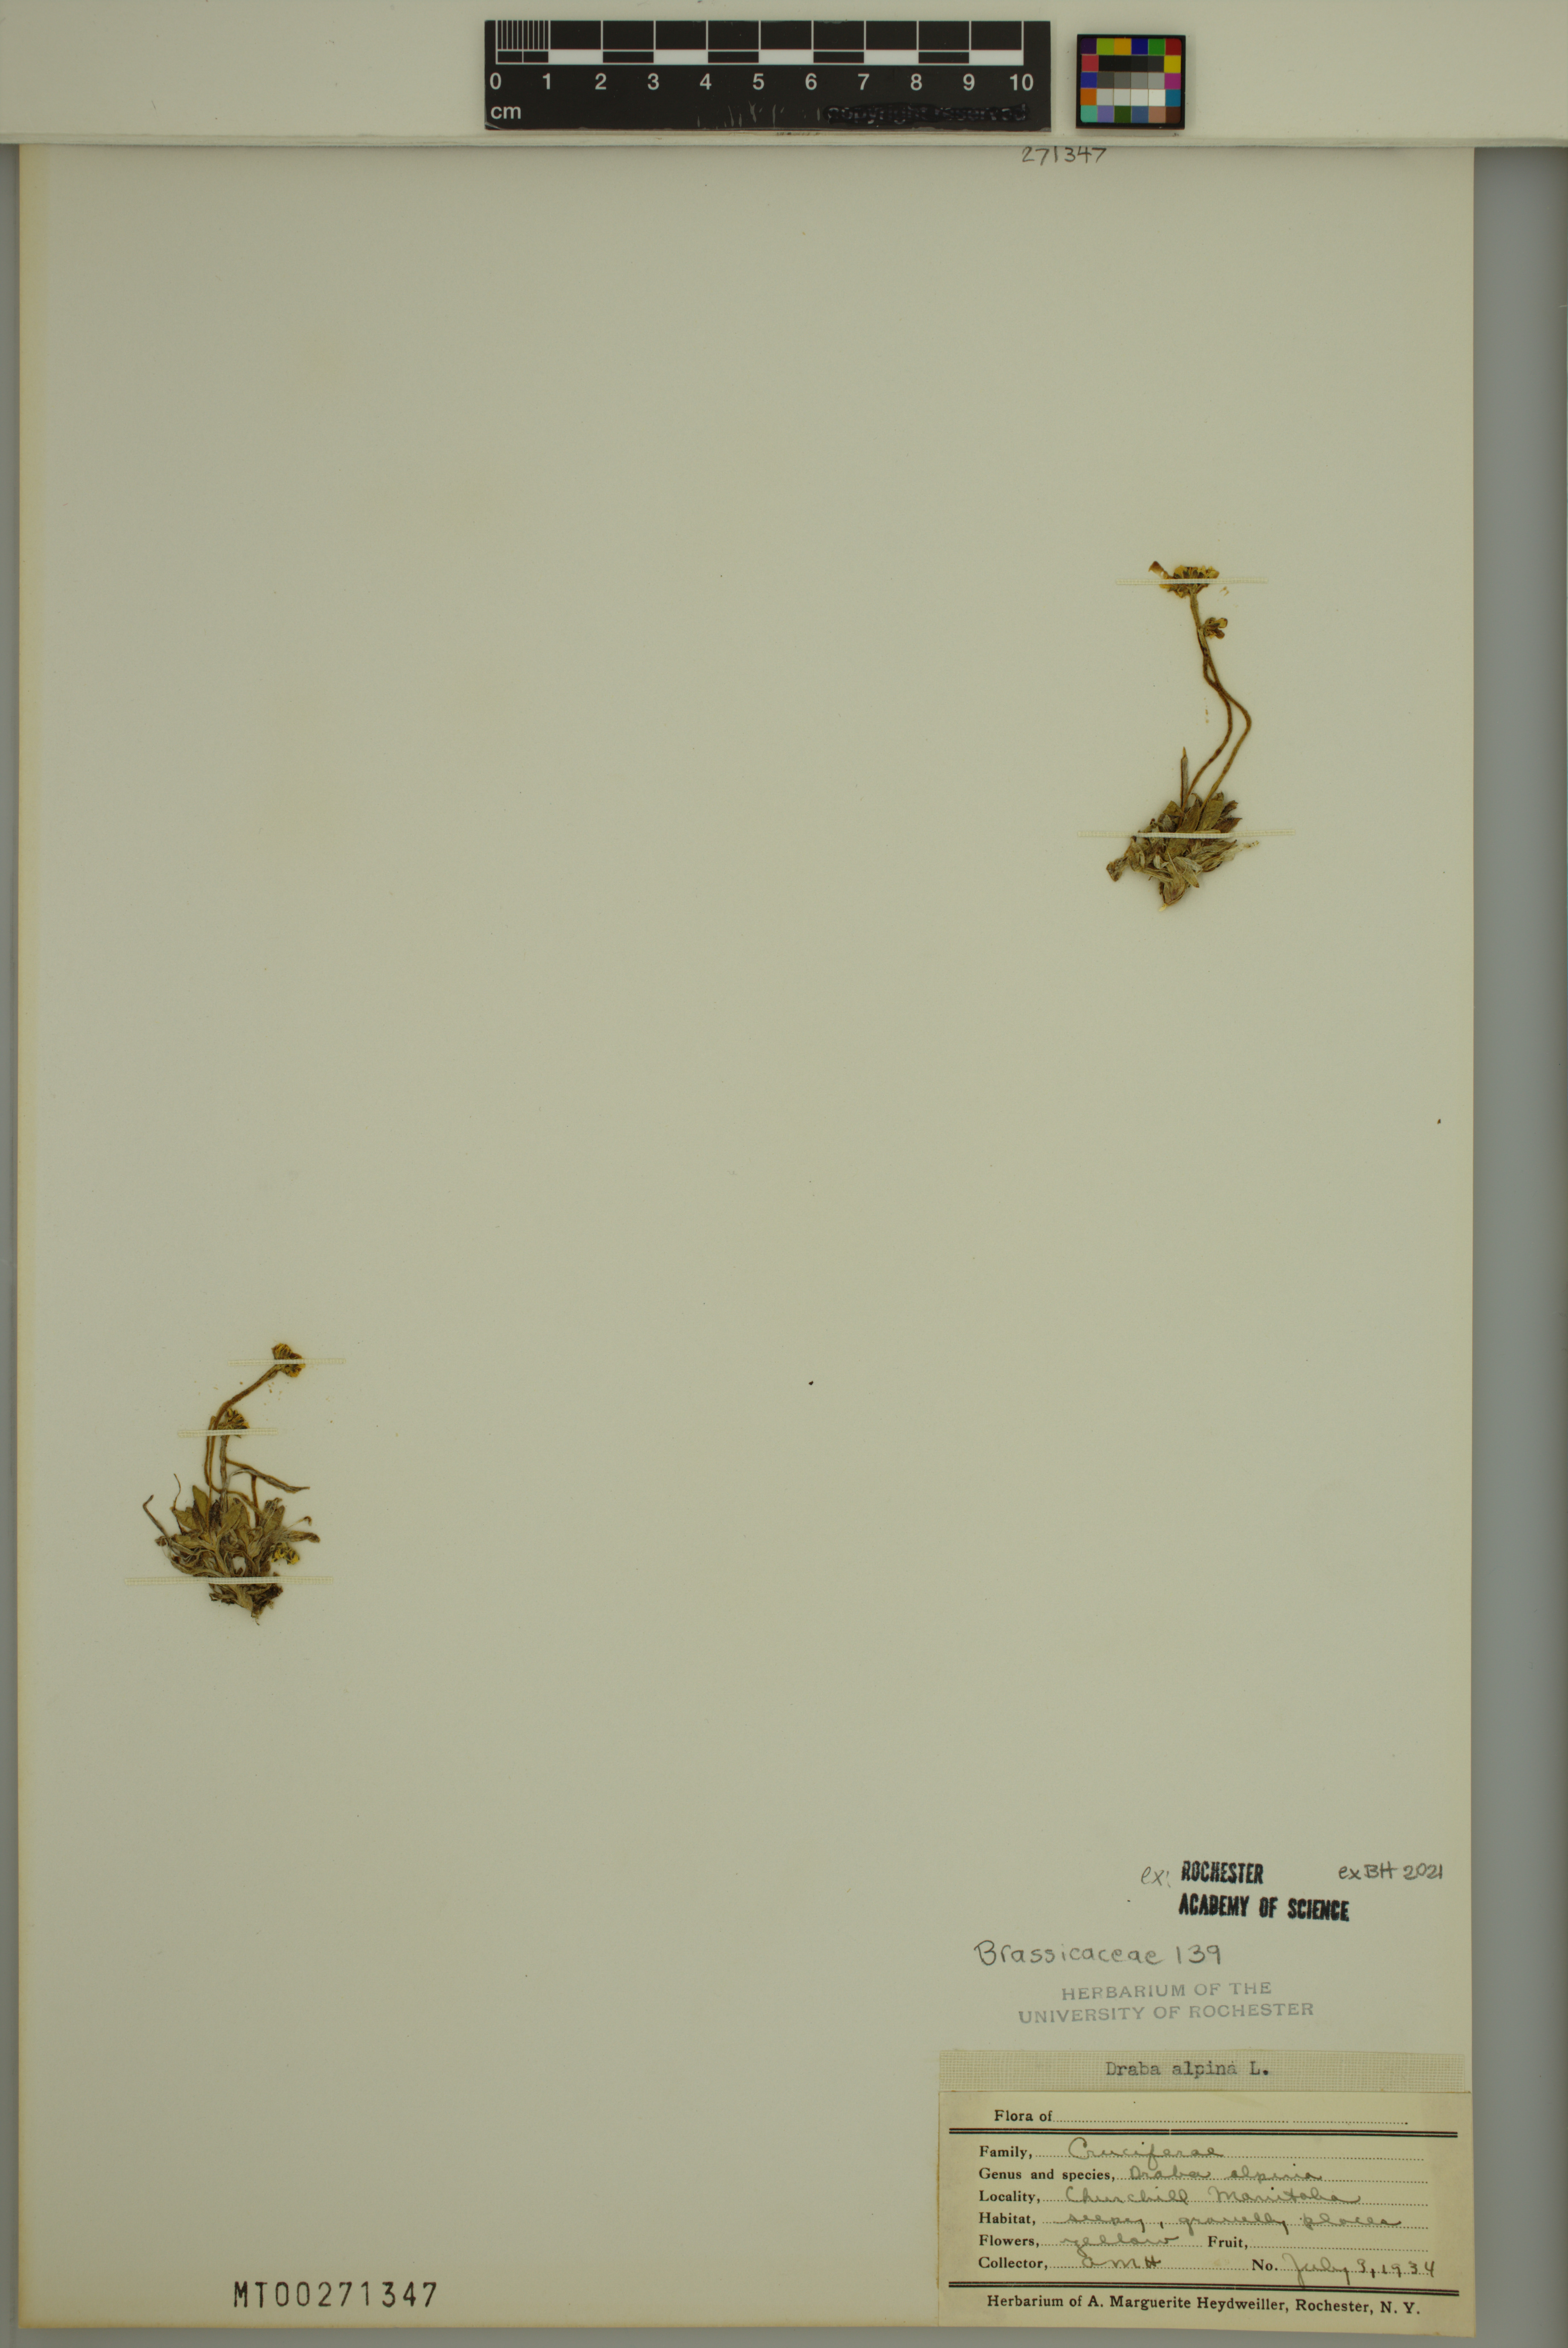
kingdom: Plantae
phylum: Tracheophyta
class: Magnoliopsida
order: Brassicales
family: Brassicaceae
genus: Draba
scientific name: Draba alpina
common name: Alpine draba
